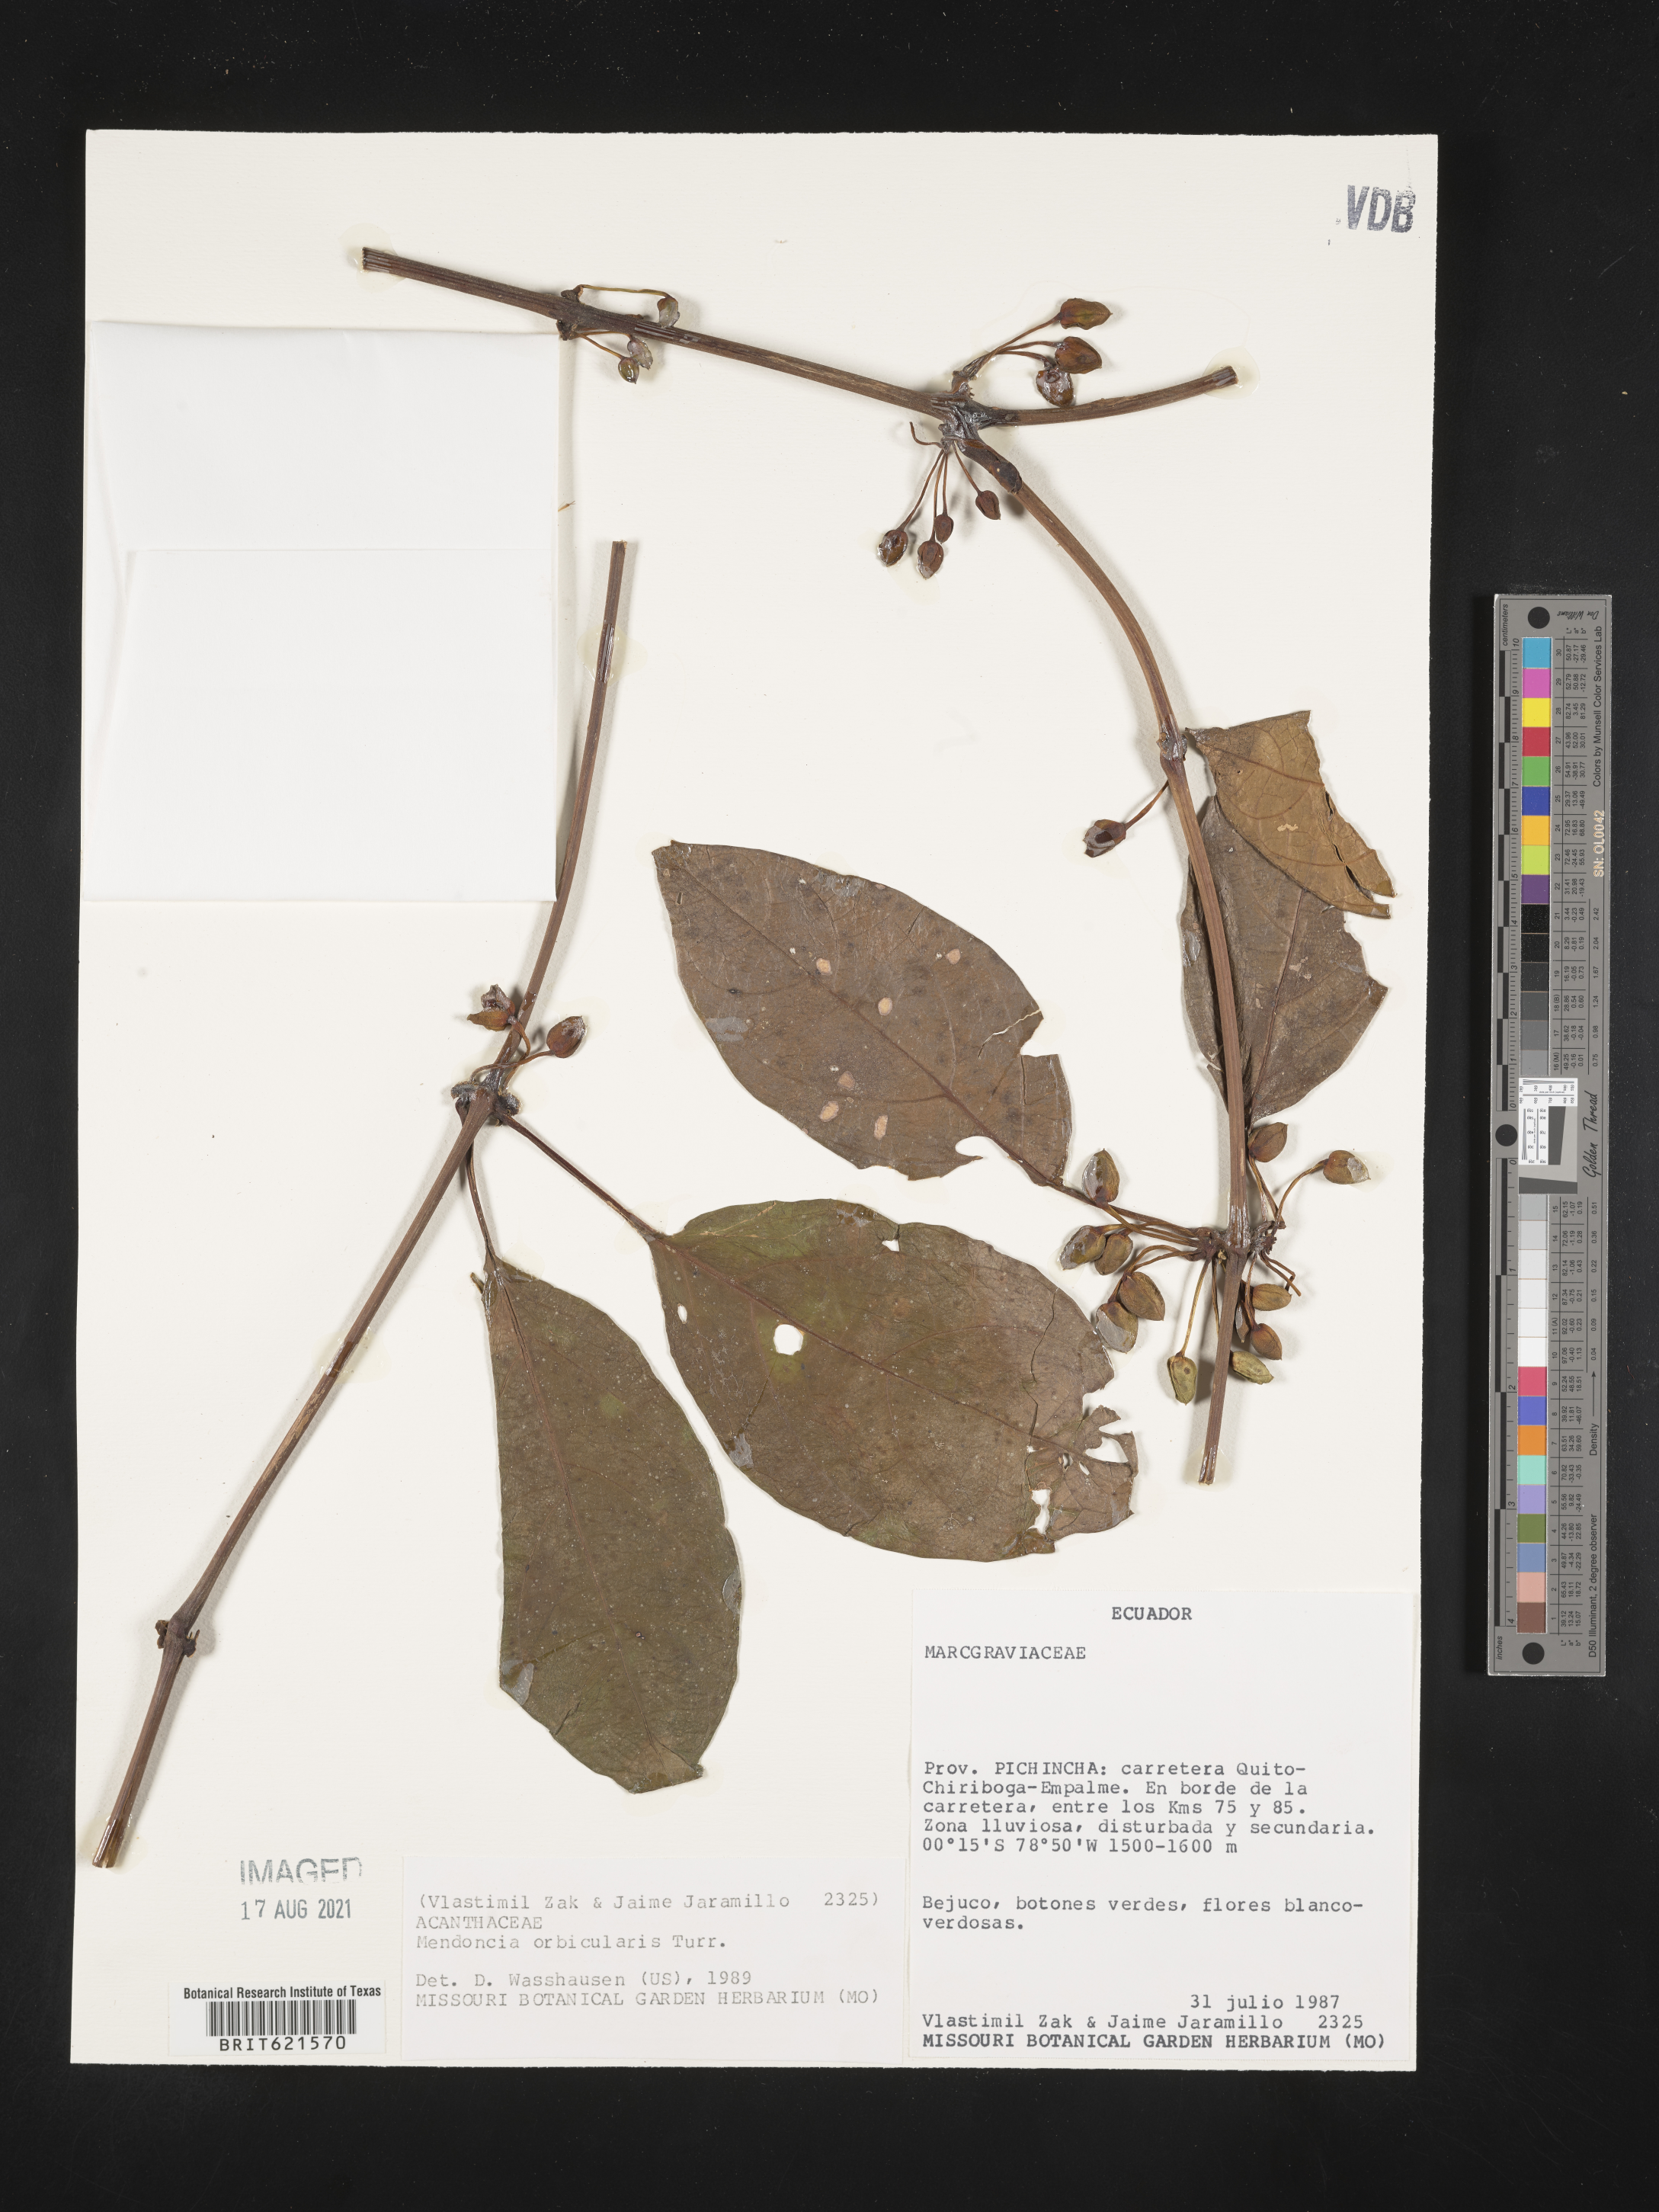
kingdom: Plantae
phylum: Tracheophyta
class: Magnoliopsida
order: Lamiales
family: Acanthaceae
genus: Mendoncia
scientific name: Mendoncia orbicularis
